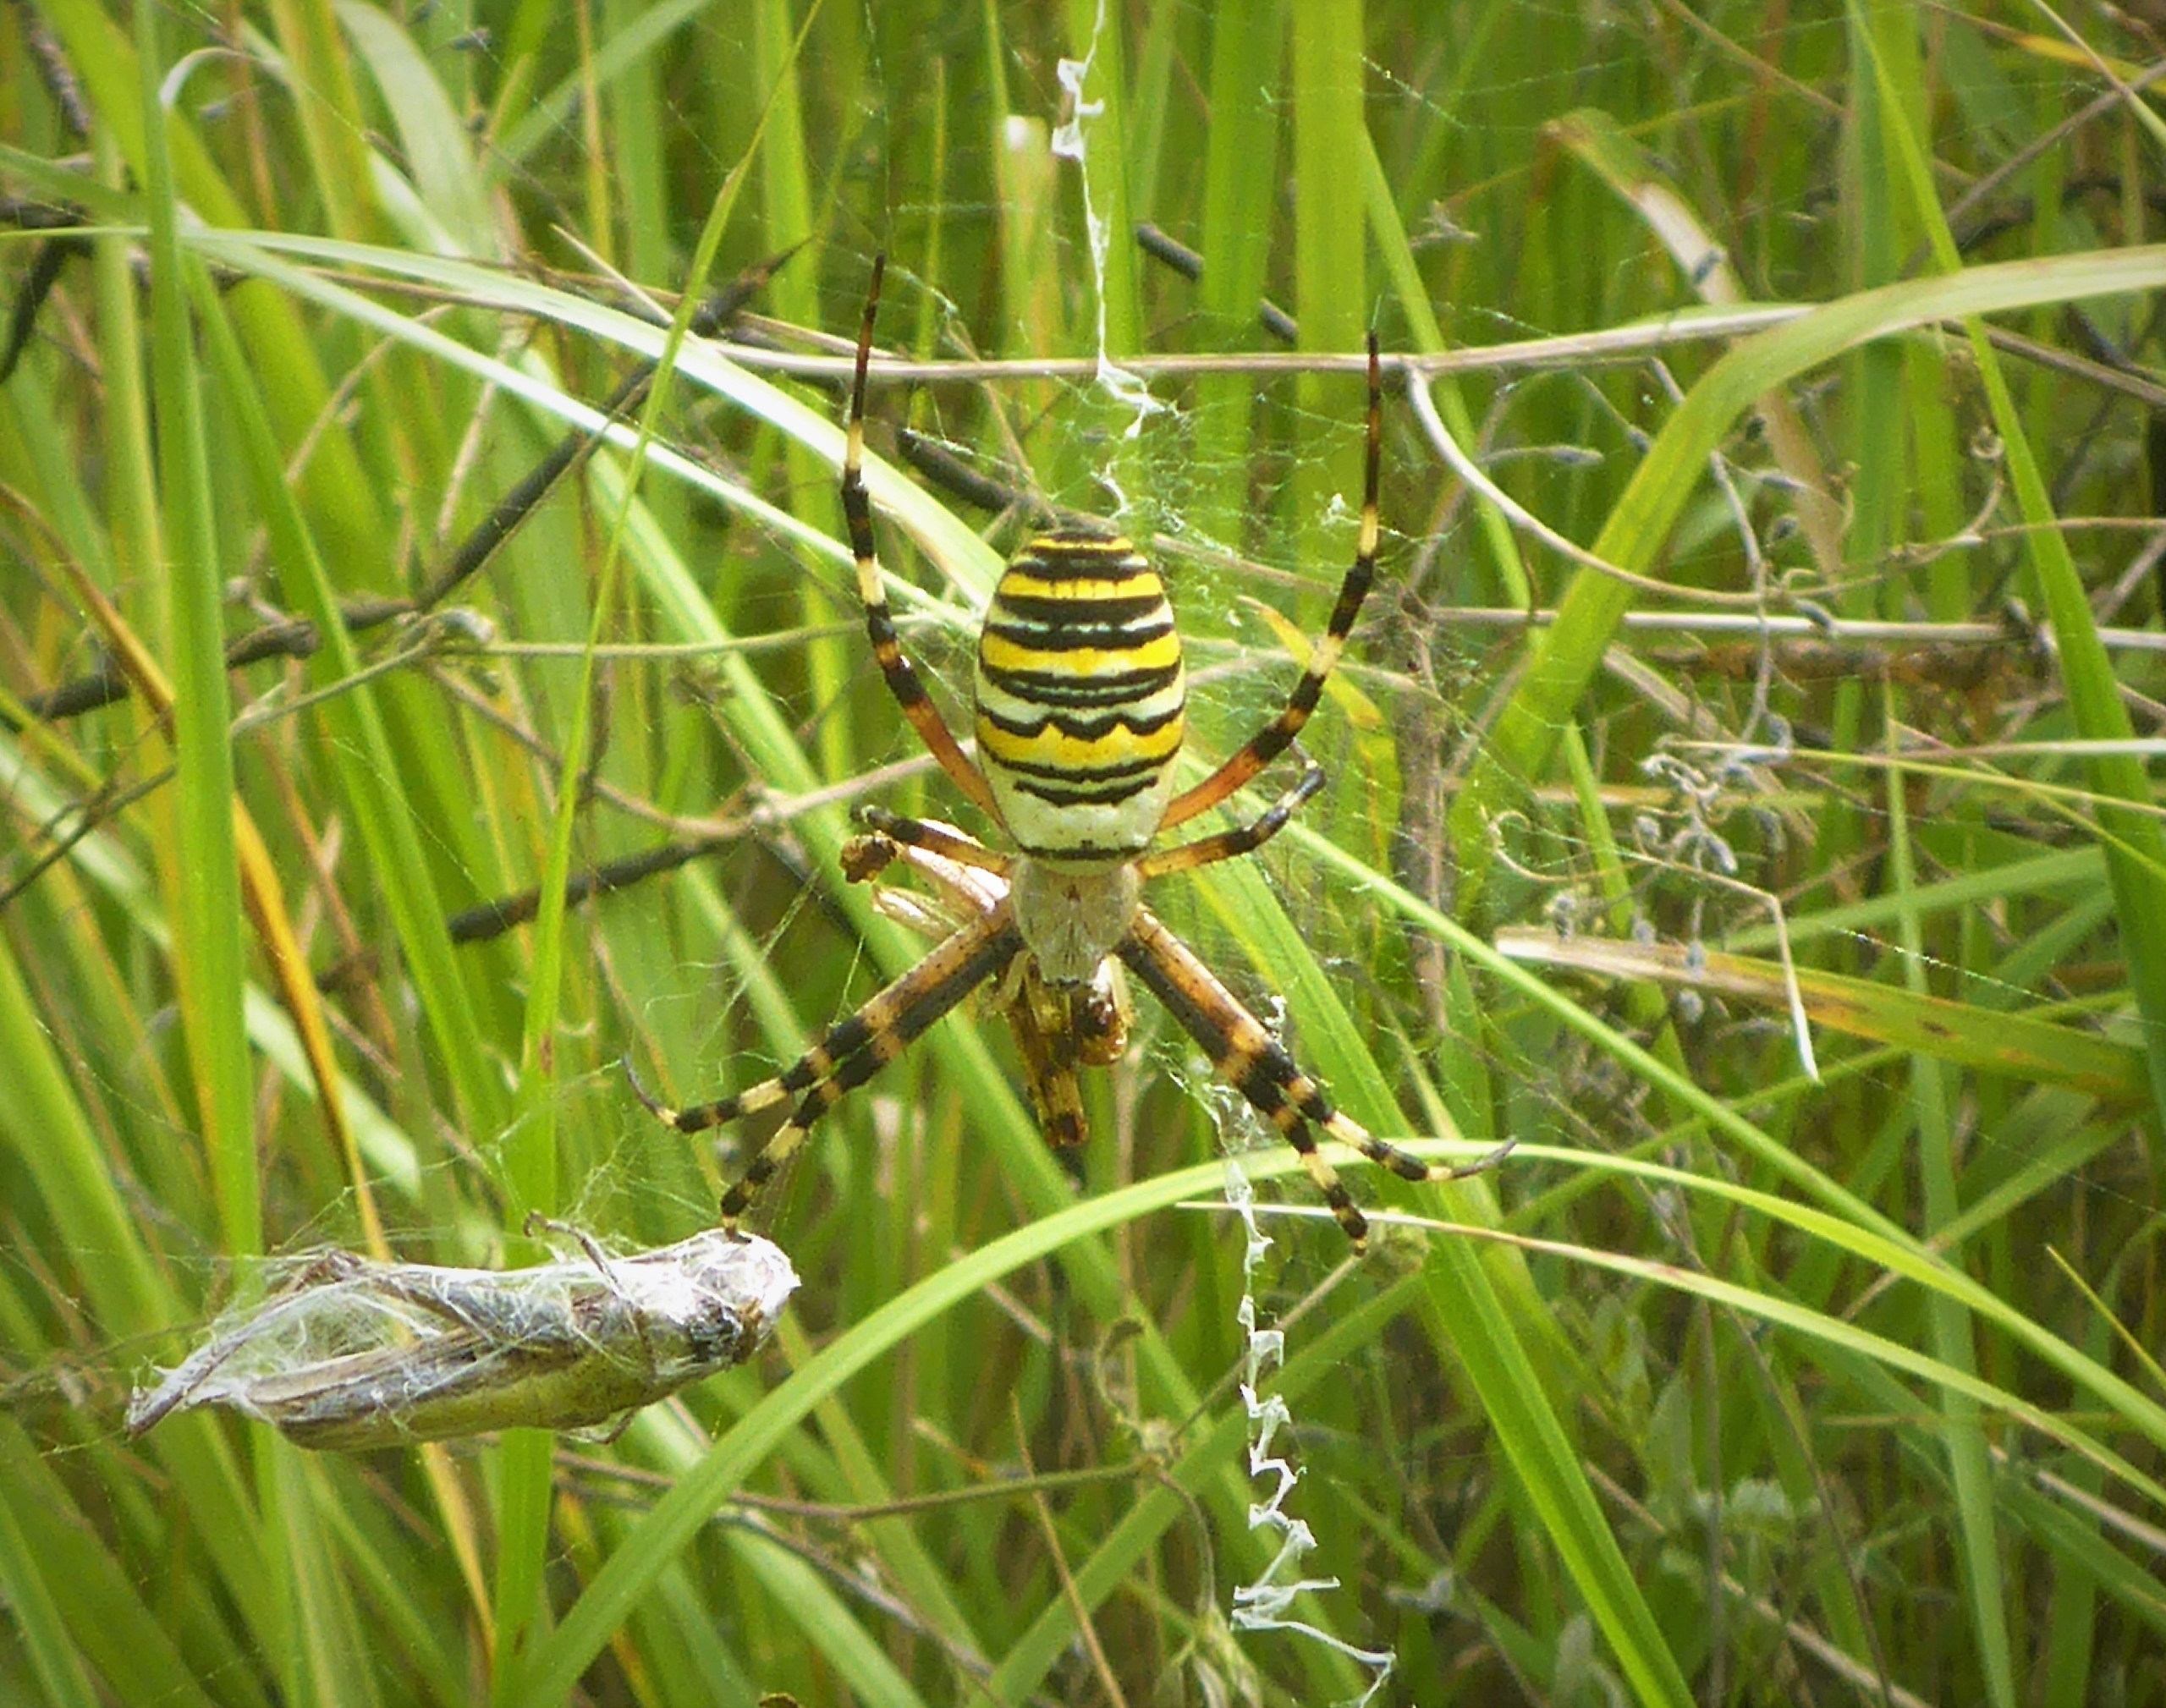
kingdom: Animalia
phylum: Arthropoda
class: Arachnida
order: Araneae
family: Araneidae
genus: Argiope
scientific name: Argiope bruennichi
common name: Hvepseedderkop
